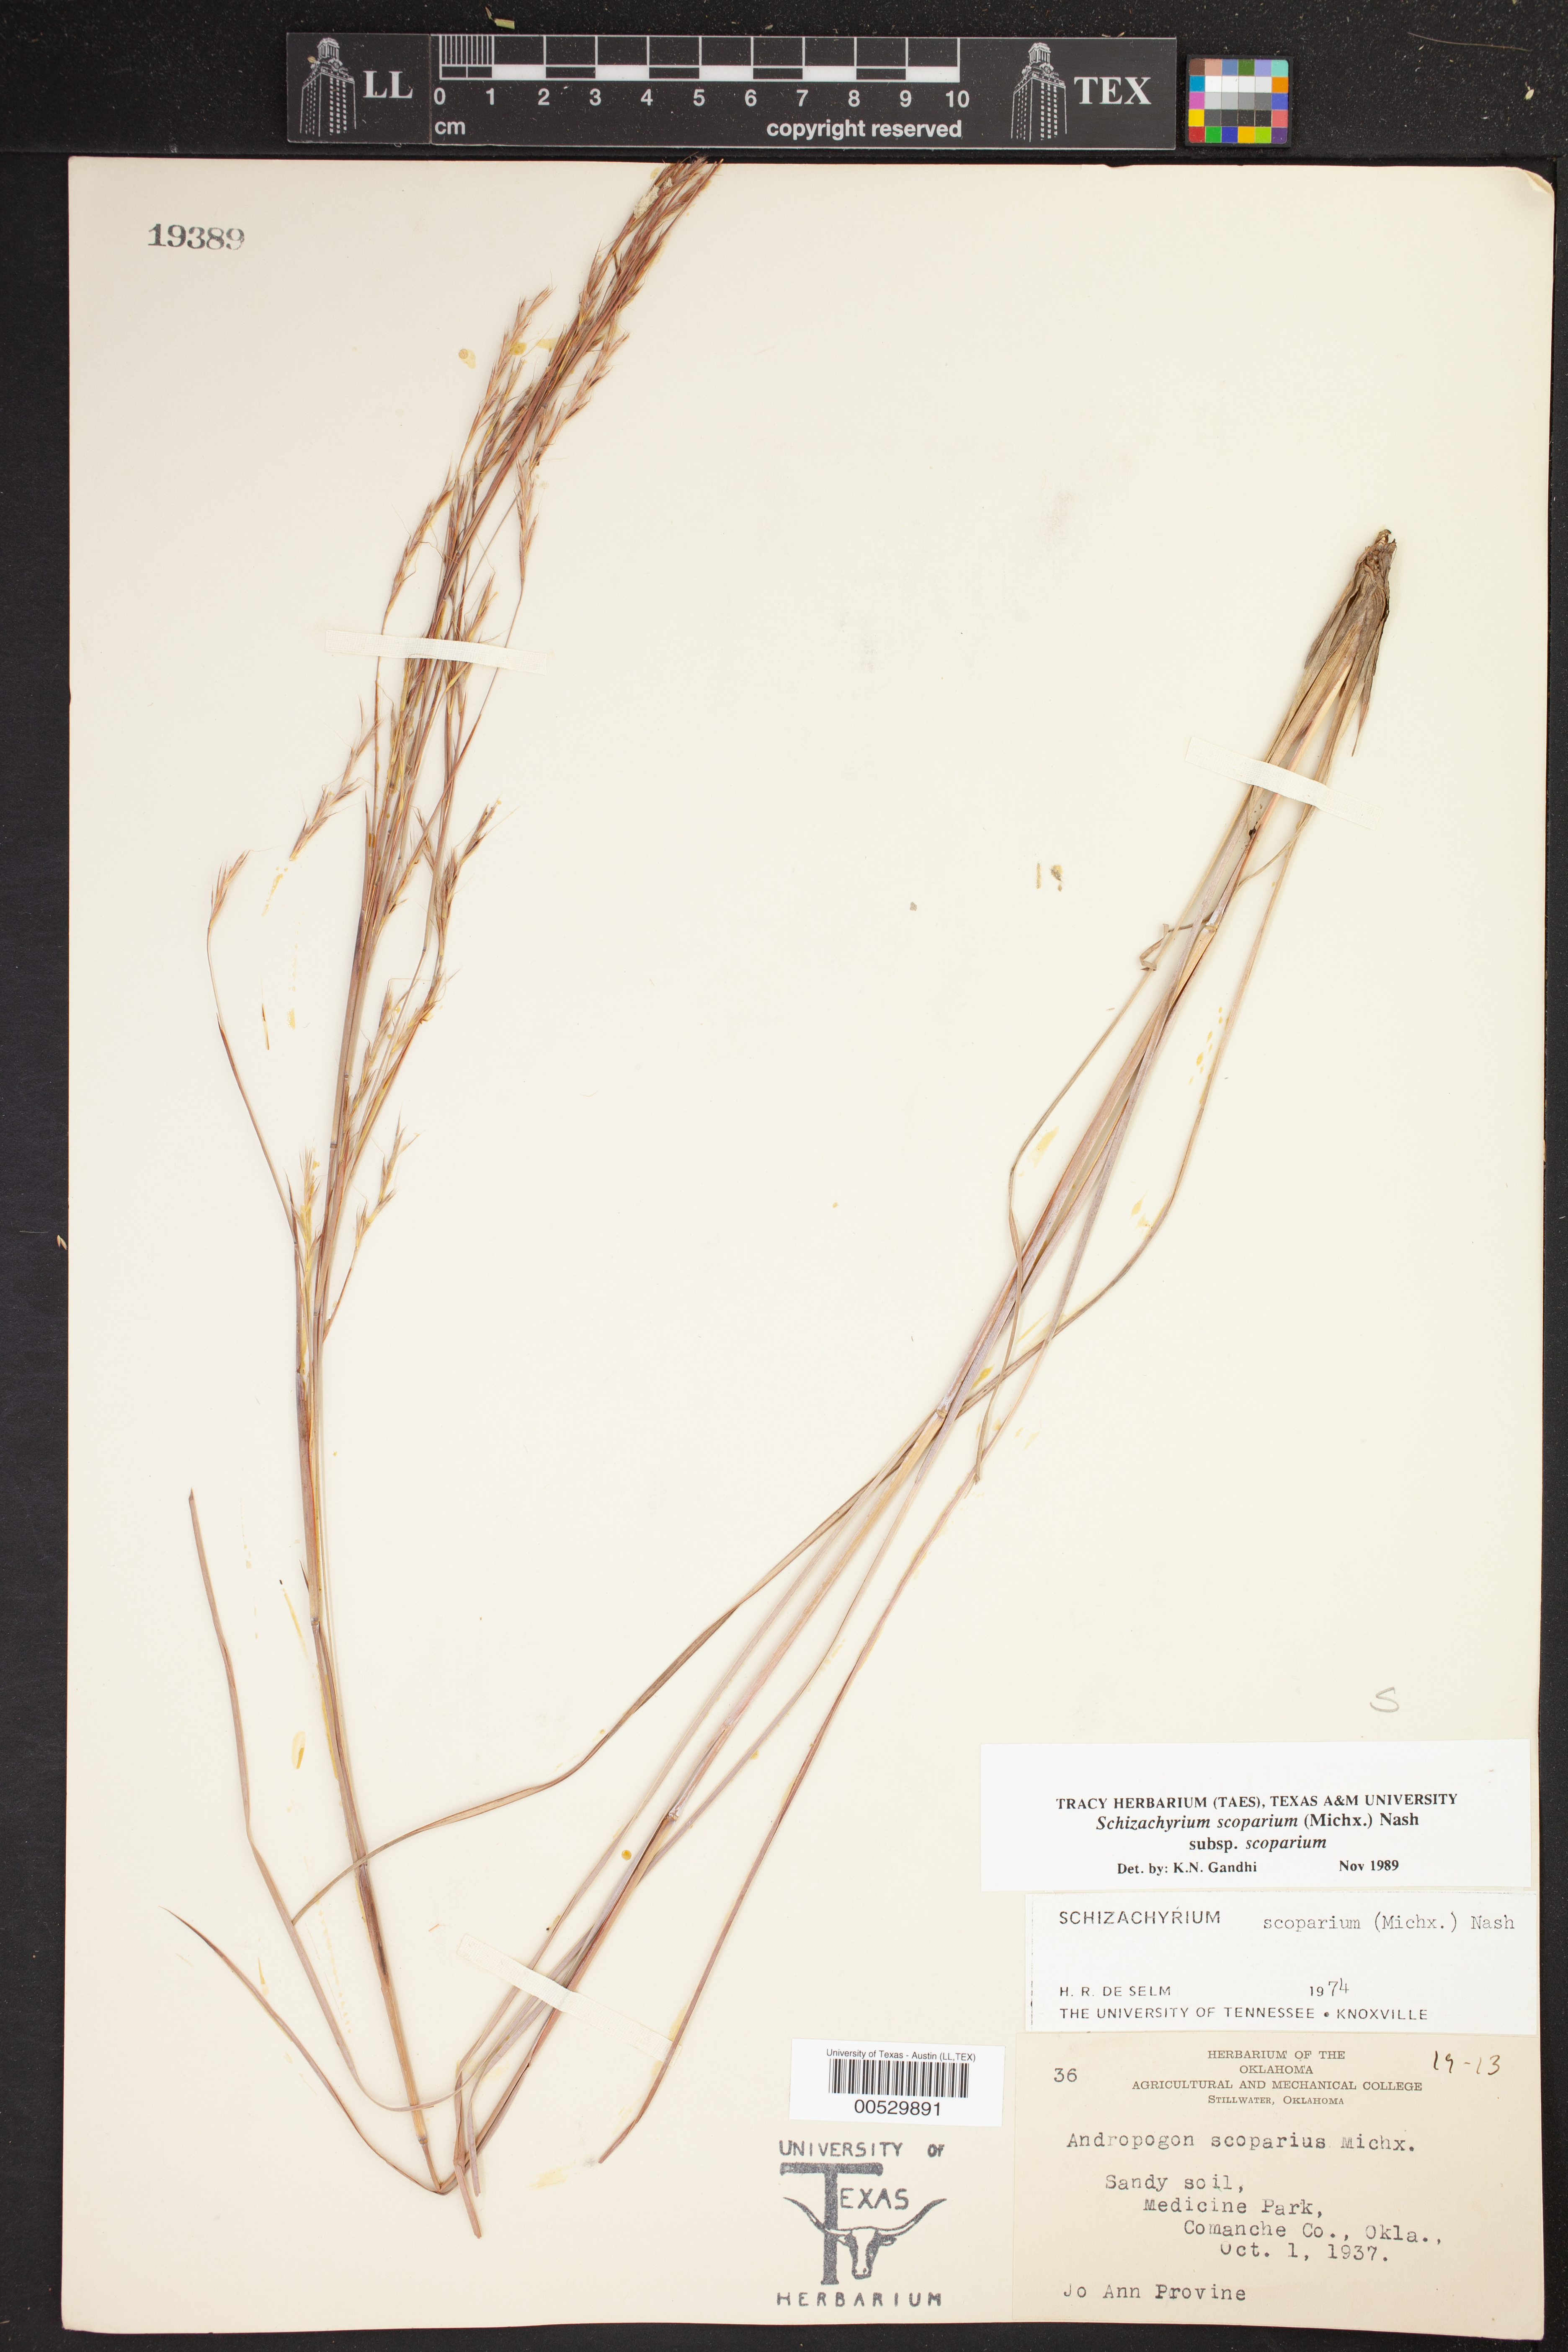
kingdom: Plantae
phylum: Tracheophyta
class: Liliopsida
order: Poales
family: Poaceae
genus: Schizachyrium
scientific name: Schizachyrium scoparium
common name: Little bluestem
